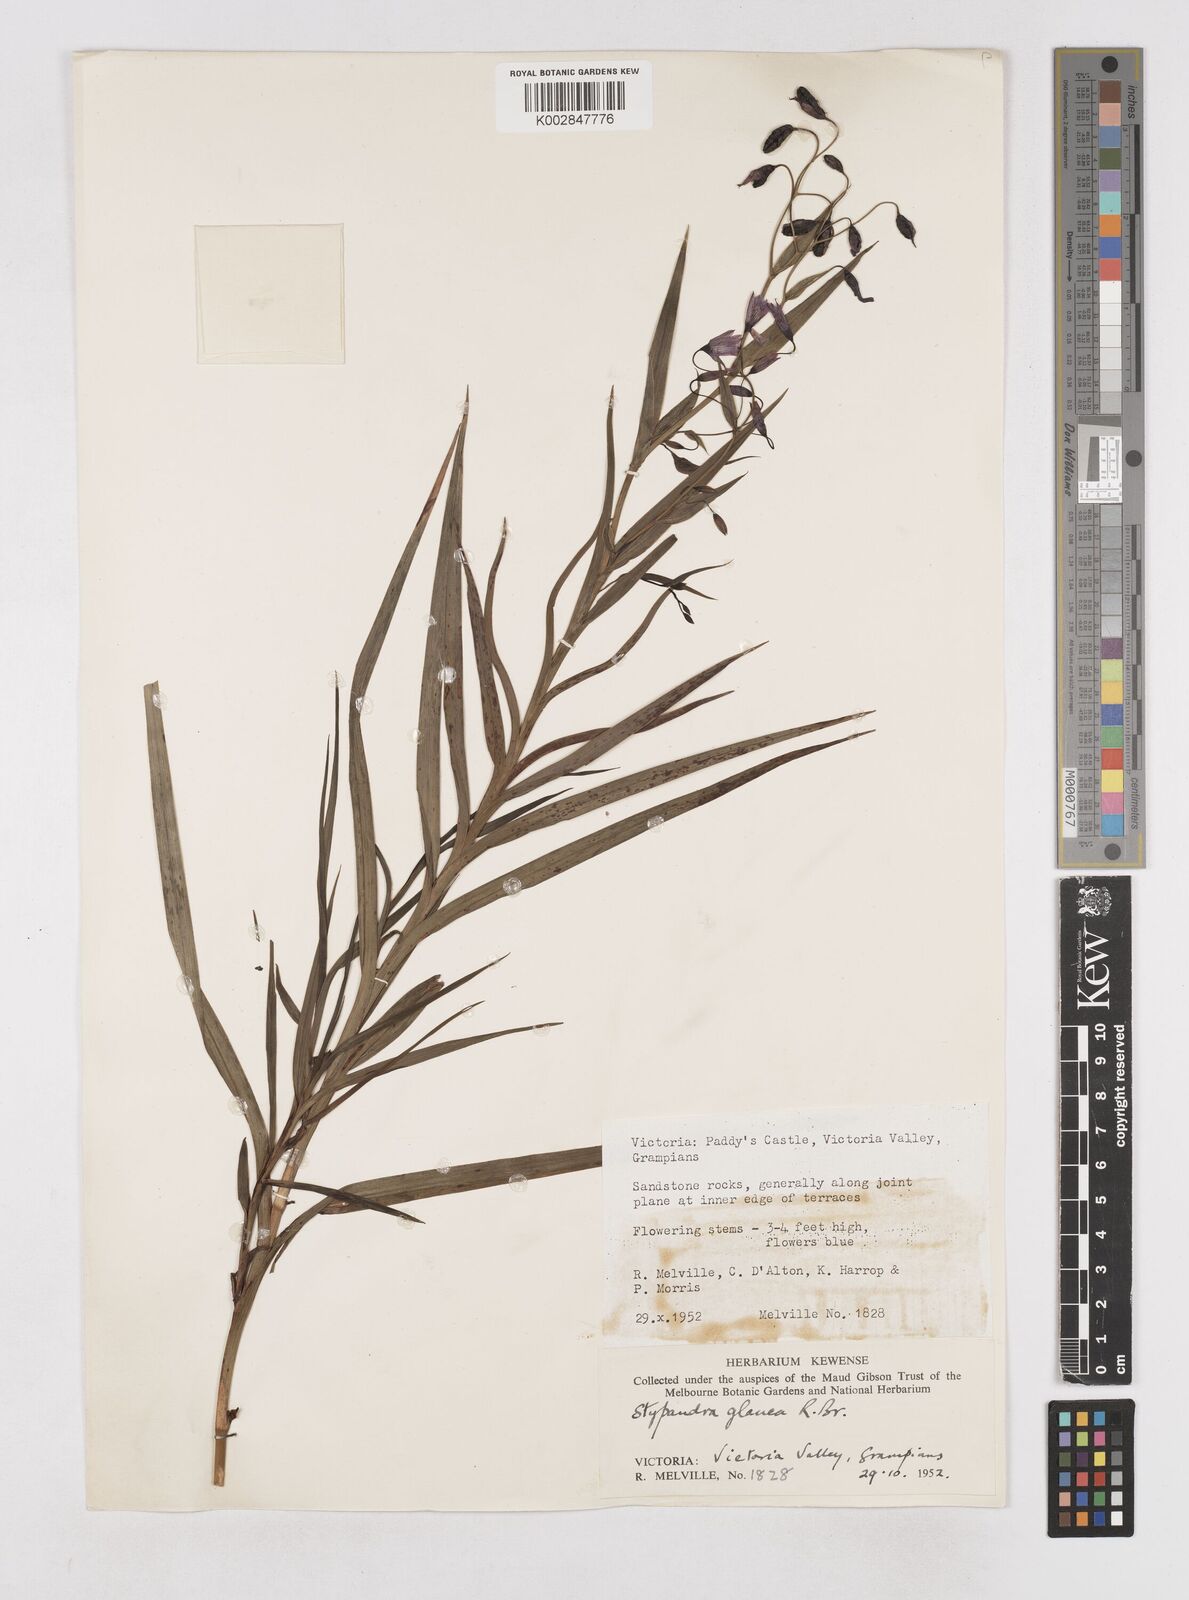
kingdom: Plantae
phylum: Tracheophyta
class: Liliopsida
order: Asparagales
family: Asphodelaceae
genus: Stypandra
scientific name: Stypandra glauca
